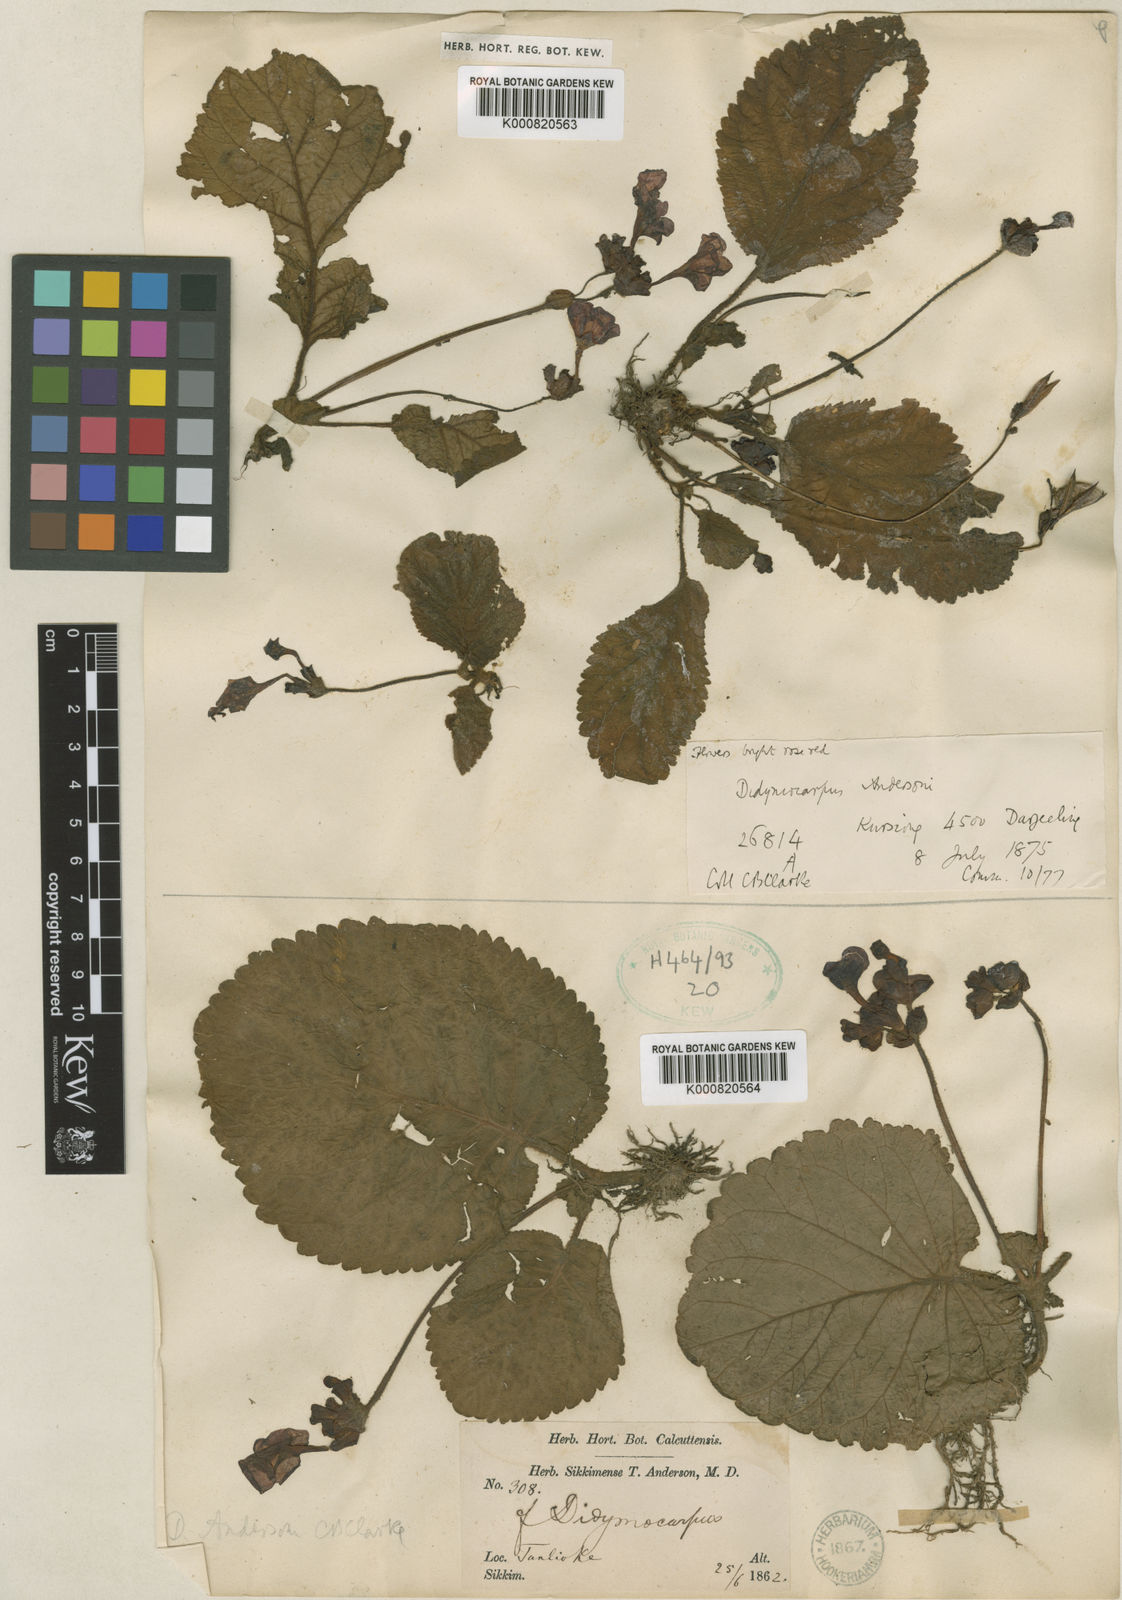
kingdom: Plantae
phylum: Tracheophyta
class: Magnoliopsida
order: Lamiales
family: Gesneriaceae
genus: Didymocarpus
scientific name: Didymocarpus andersonii
